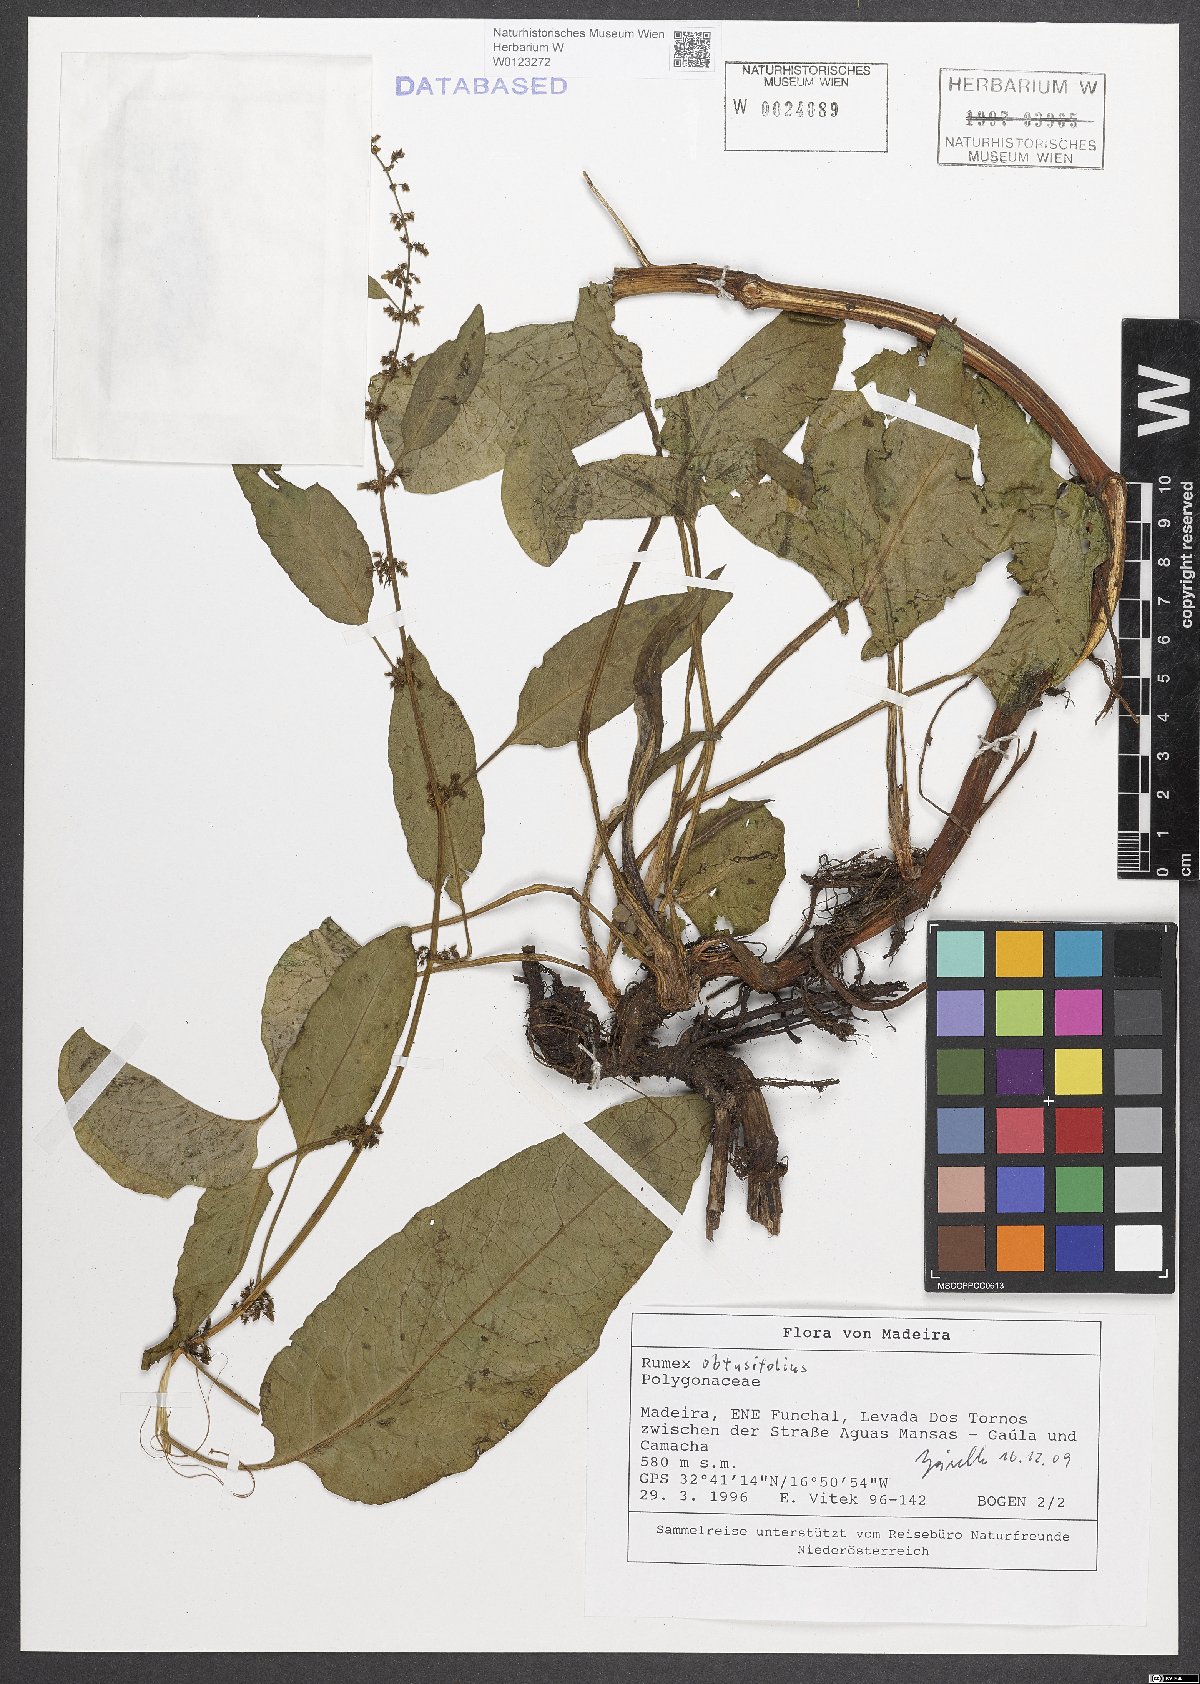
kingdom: Plantae
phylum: Tracheophyta
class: Magnoliopsida
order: Caryophyllales
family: Polygonaceae
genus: Rumex
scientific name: Rumex obtusifolius
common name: Bitter dock
